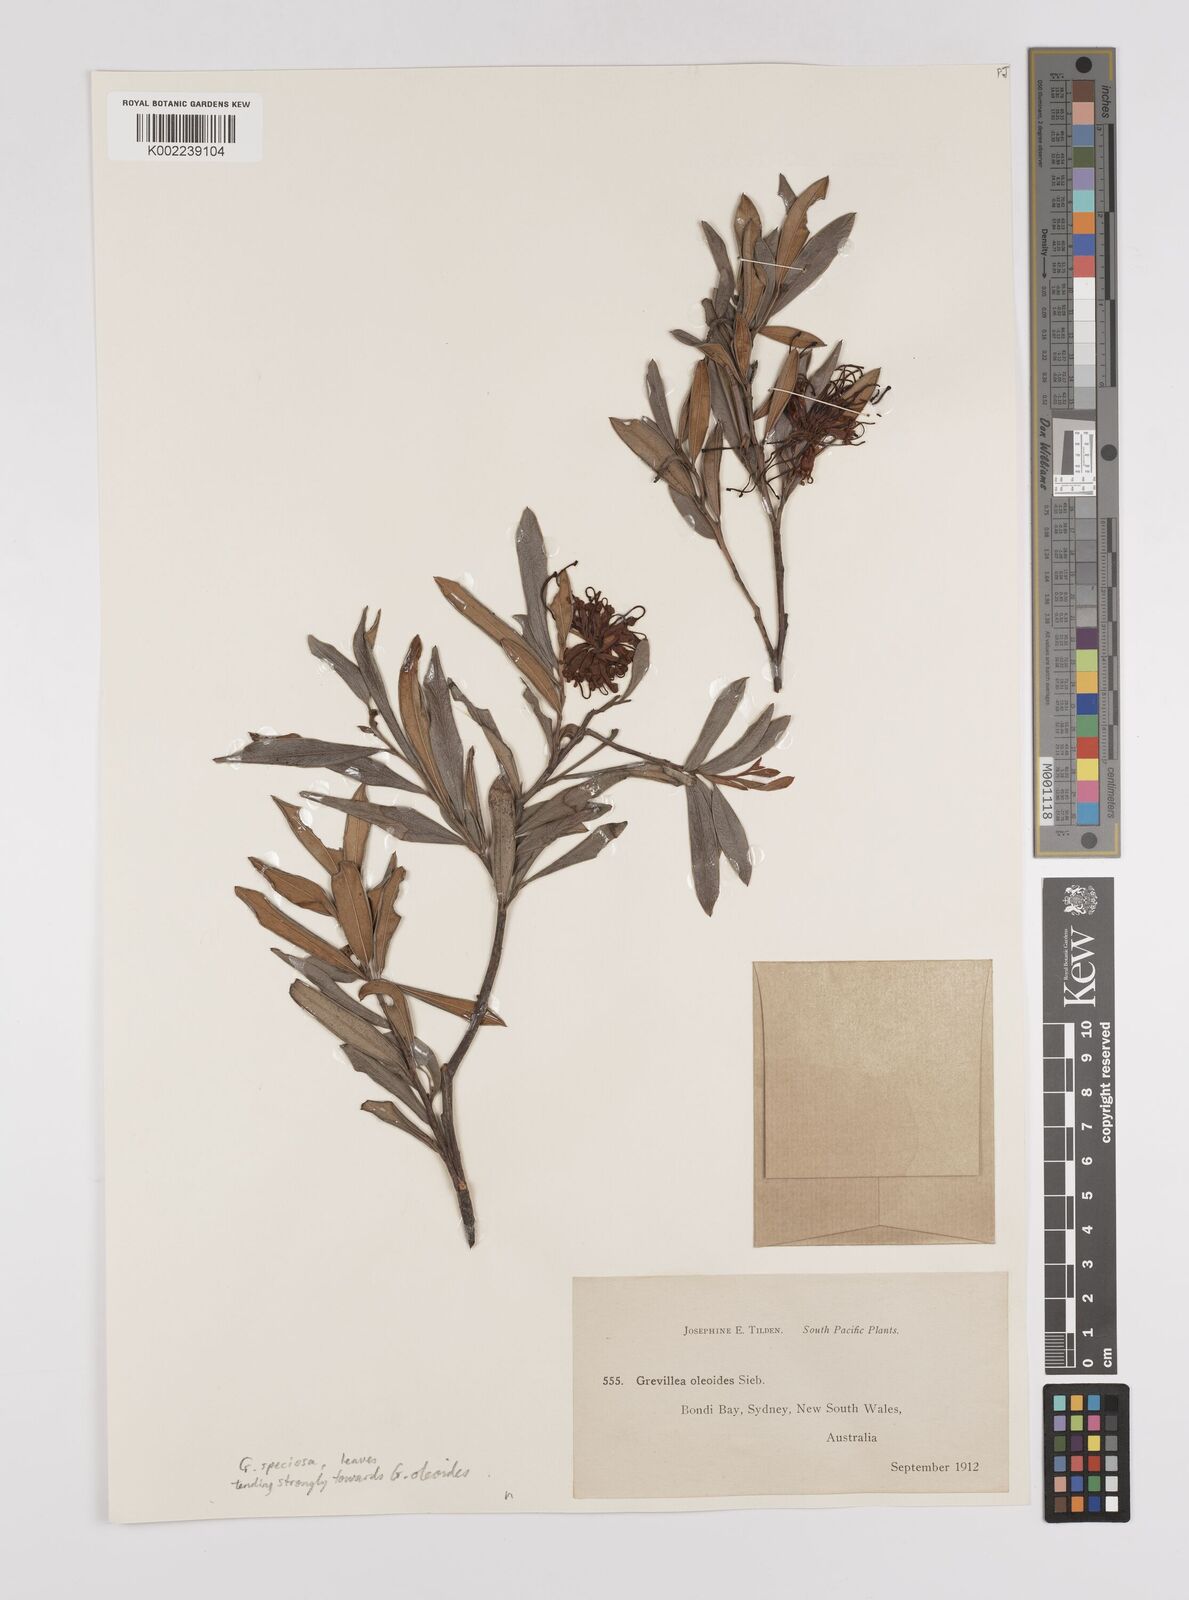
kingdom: Plantae
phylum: Tracheophyta
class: Magnoliopsida
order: Proteales
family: Proteaceae
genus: Grevillea
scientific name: Grevillea speciosa
